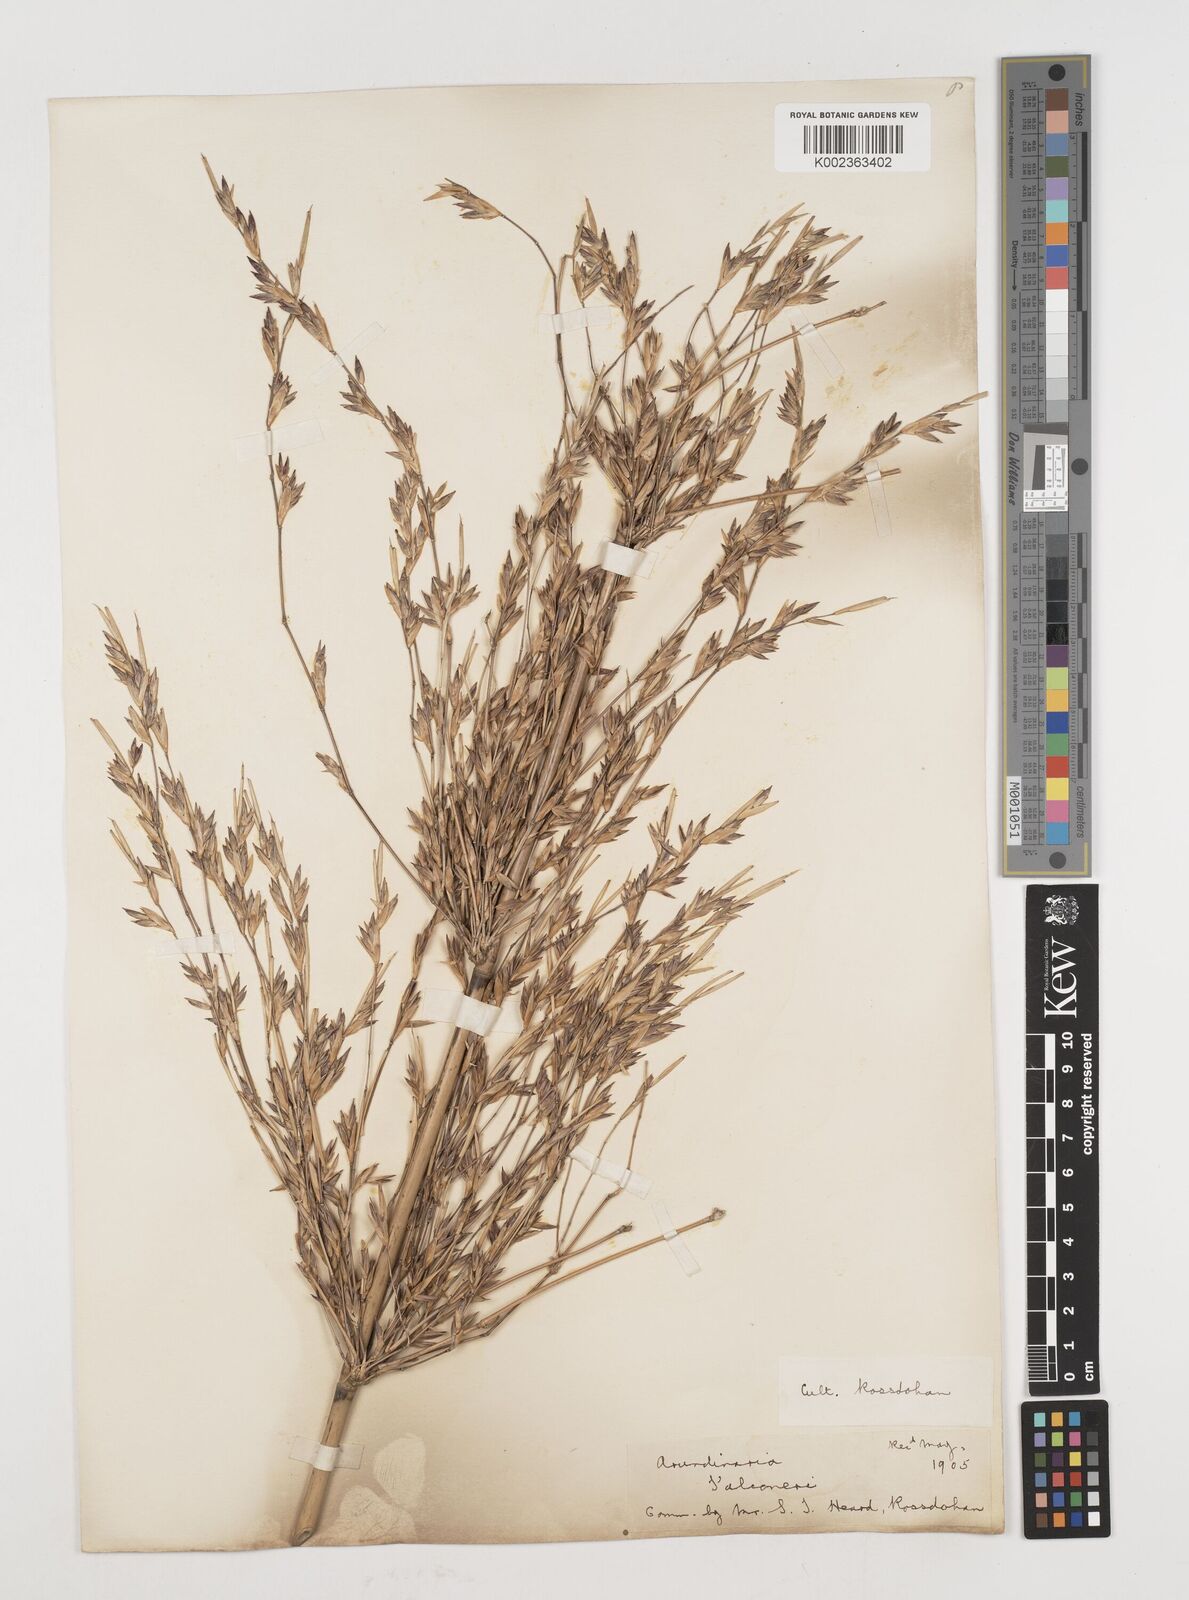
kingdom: Plantae
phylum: Tracheophyta
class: Liliopsida
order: Poales
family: Poaceae
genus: Himalayacalamus
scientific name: Himalayacalamus falconeri
